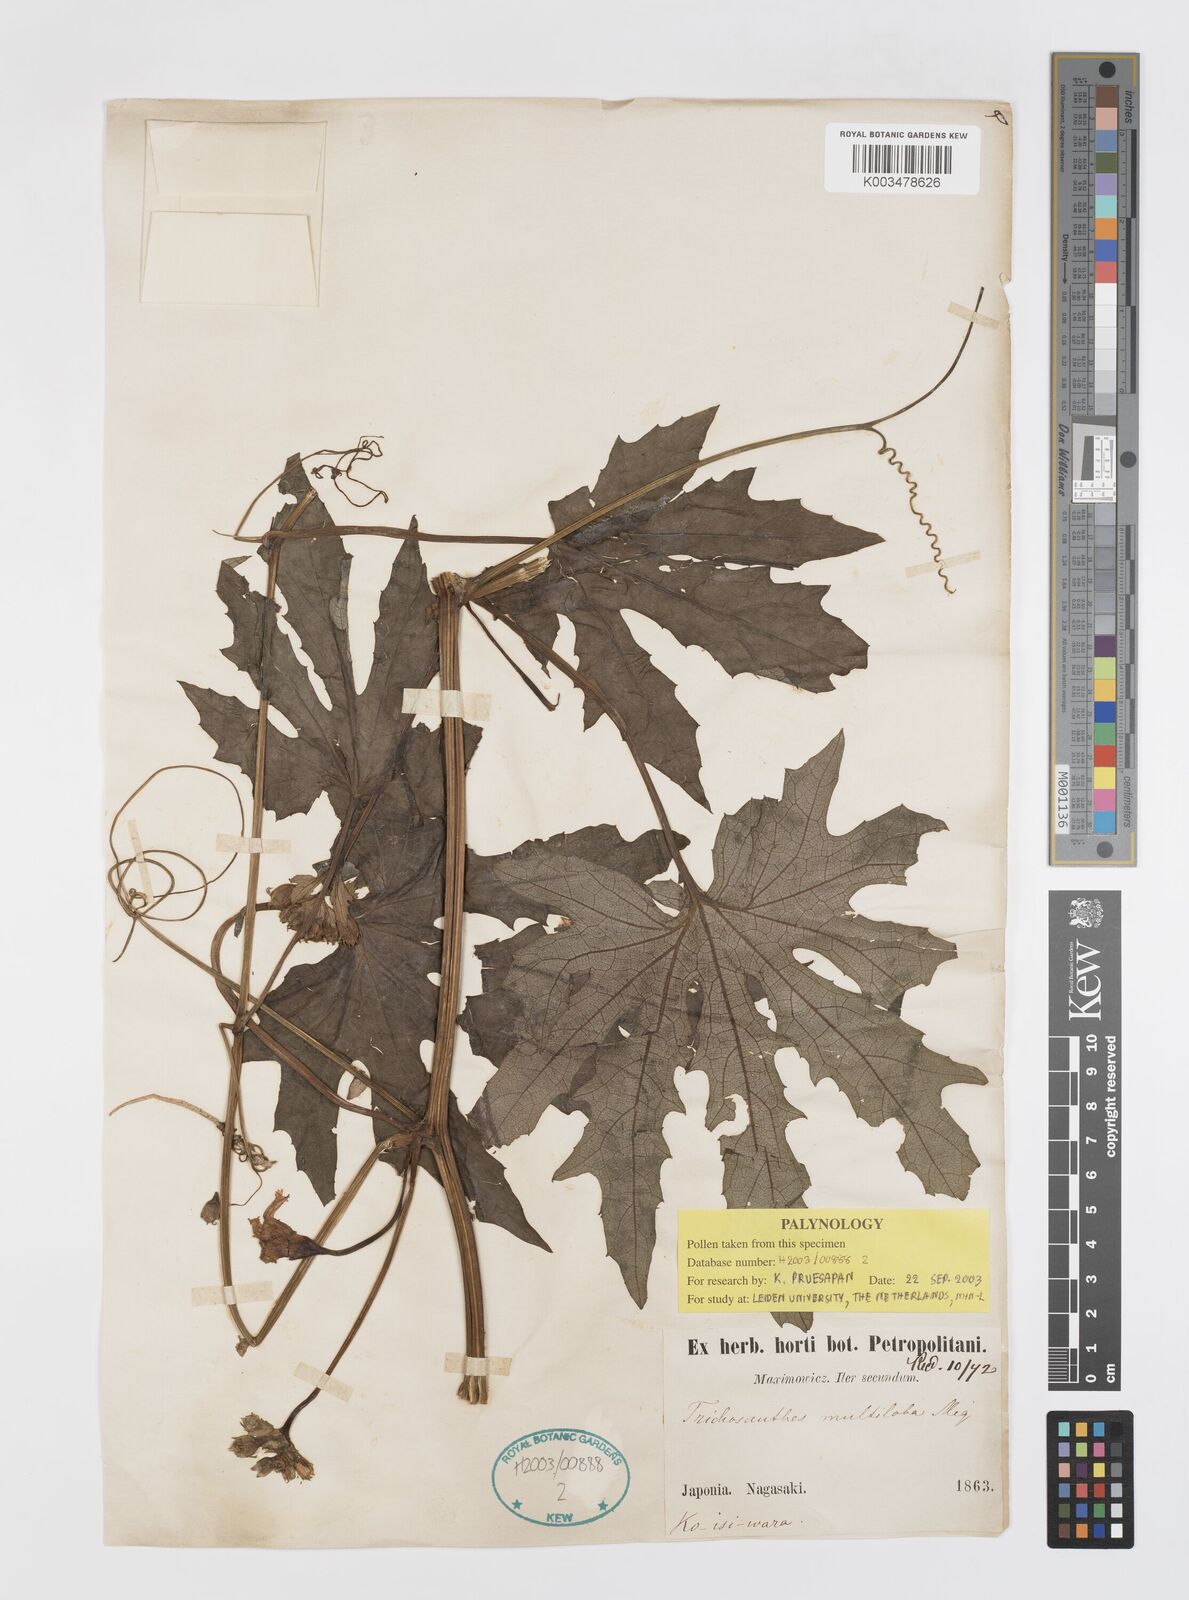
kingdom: Plantae
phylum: Tracheophyta
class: Magnoliopsida
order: Cucurbitales
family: Cucurbitaceae
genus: Trichosanthes
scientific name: Trichosanthes multiloba
